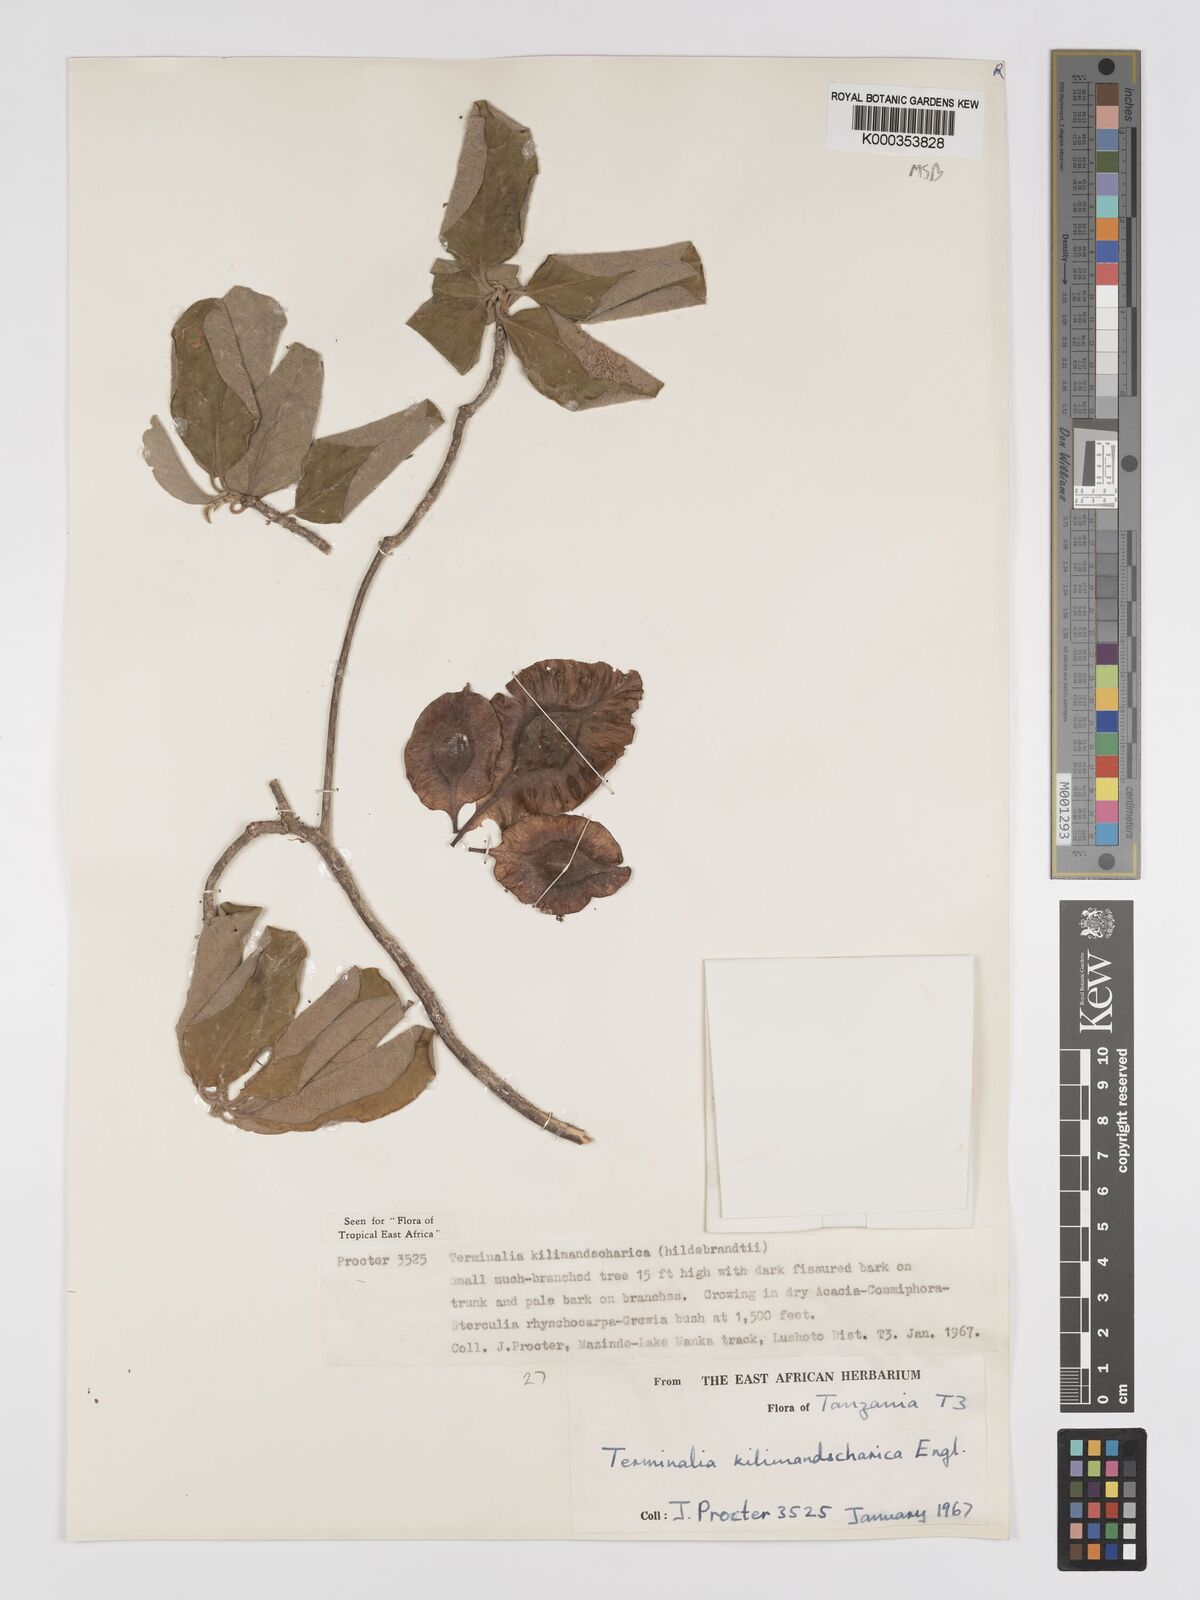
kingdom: Plantae
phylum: Tracheophyta
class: Magnoliopsida
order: Myrtales
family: Combretaceae
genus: Terminalia
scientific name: Terminalia kilimandscharica
